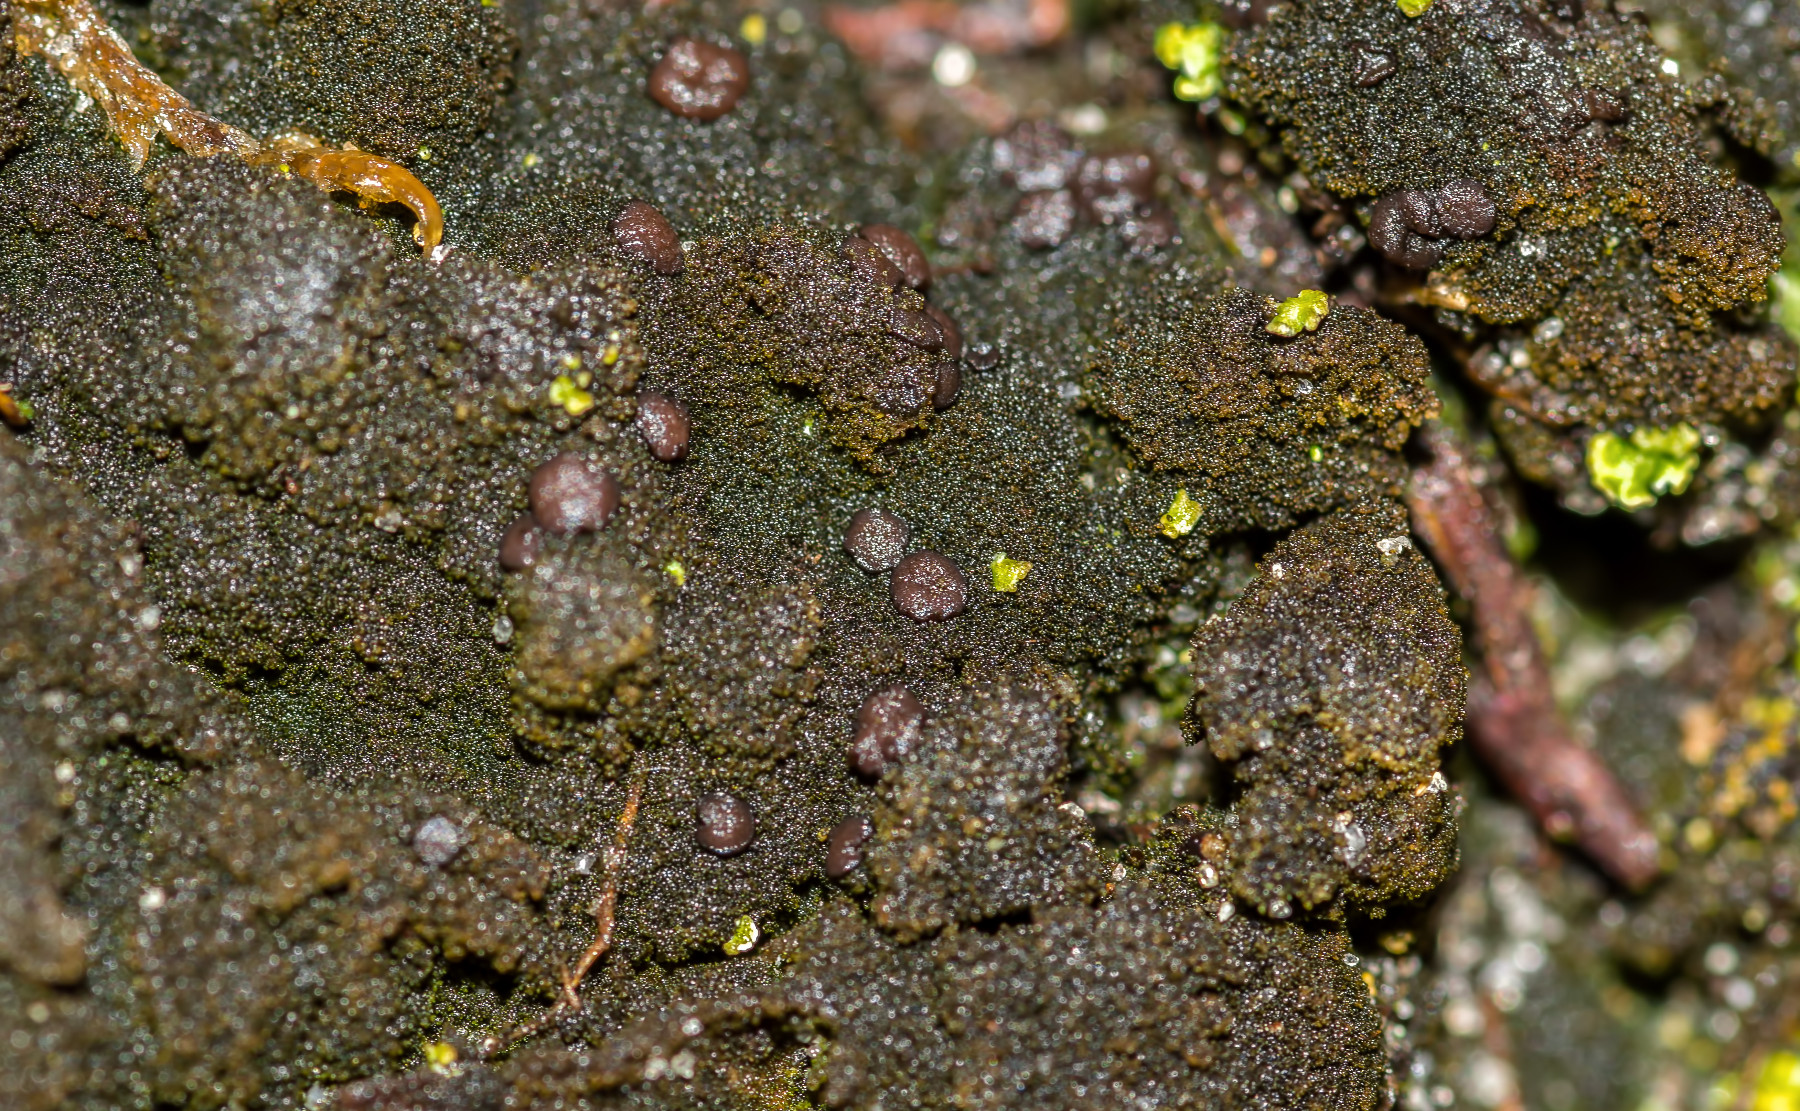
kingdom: Fungi
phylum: Ascomycota
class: Lecanoromycetes
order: Baeomycetales
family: Trapeliaceae
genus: Placynthiella
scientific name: Placynthiella icmalea
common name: stift-skivelav
